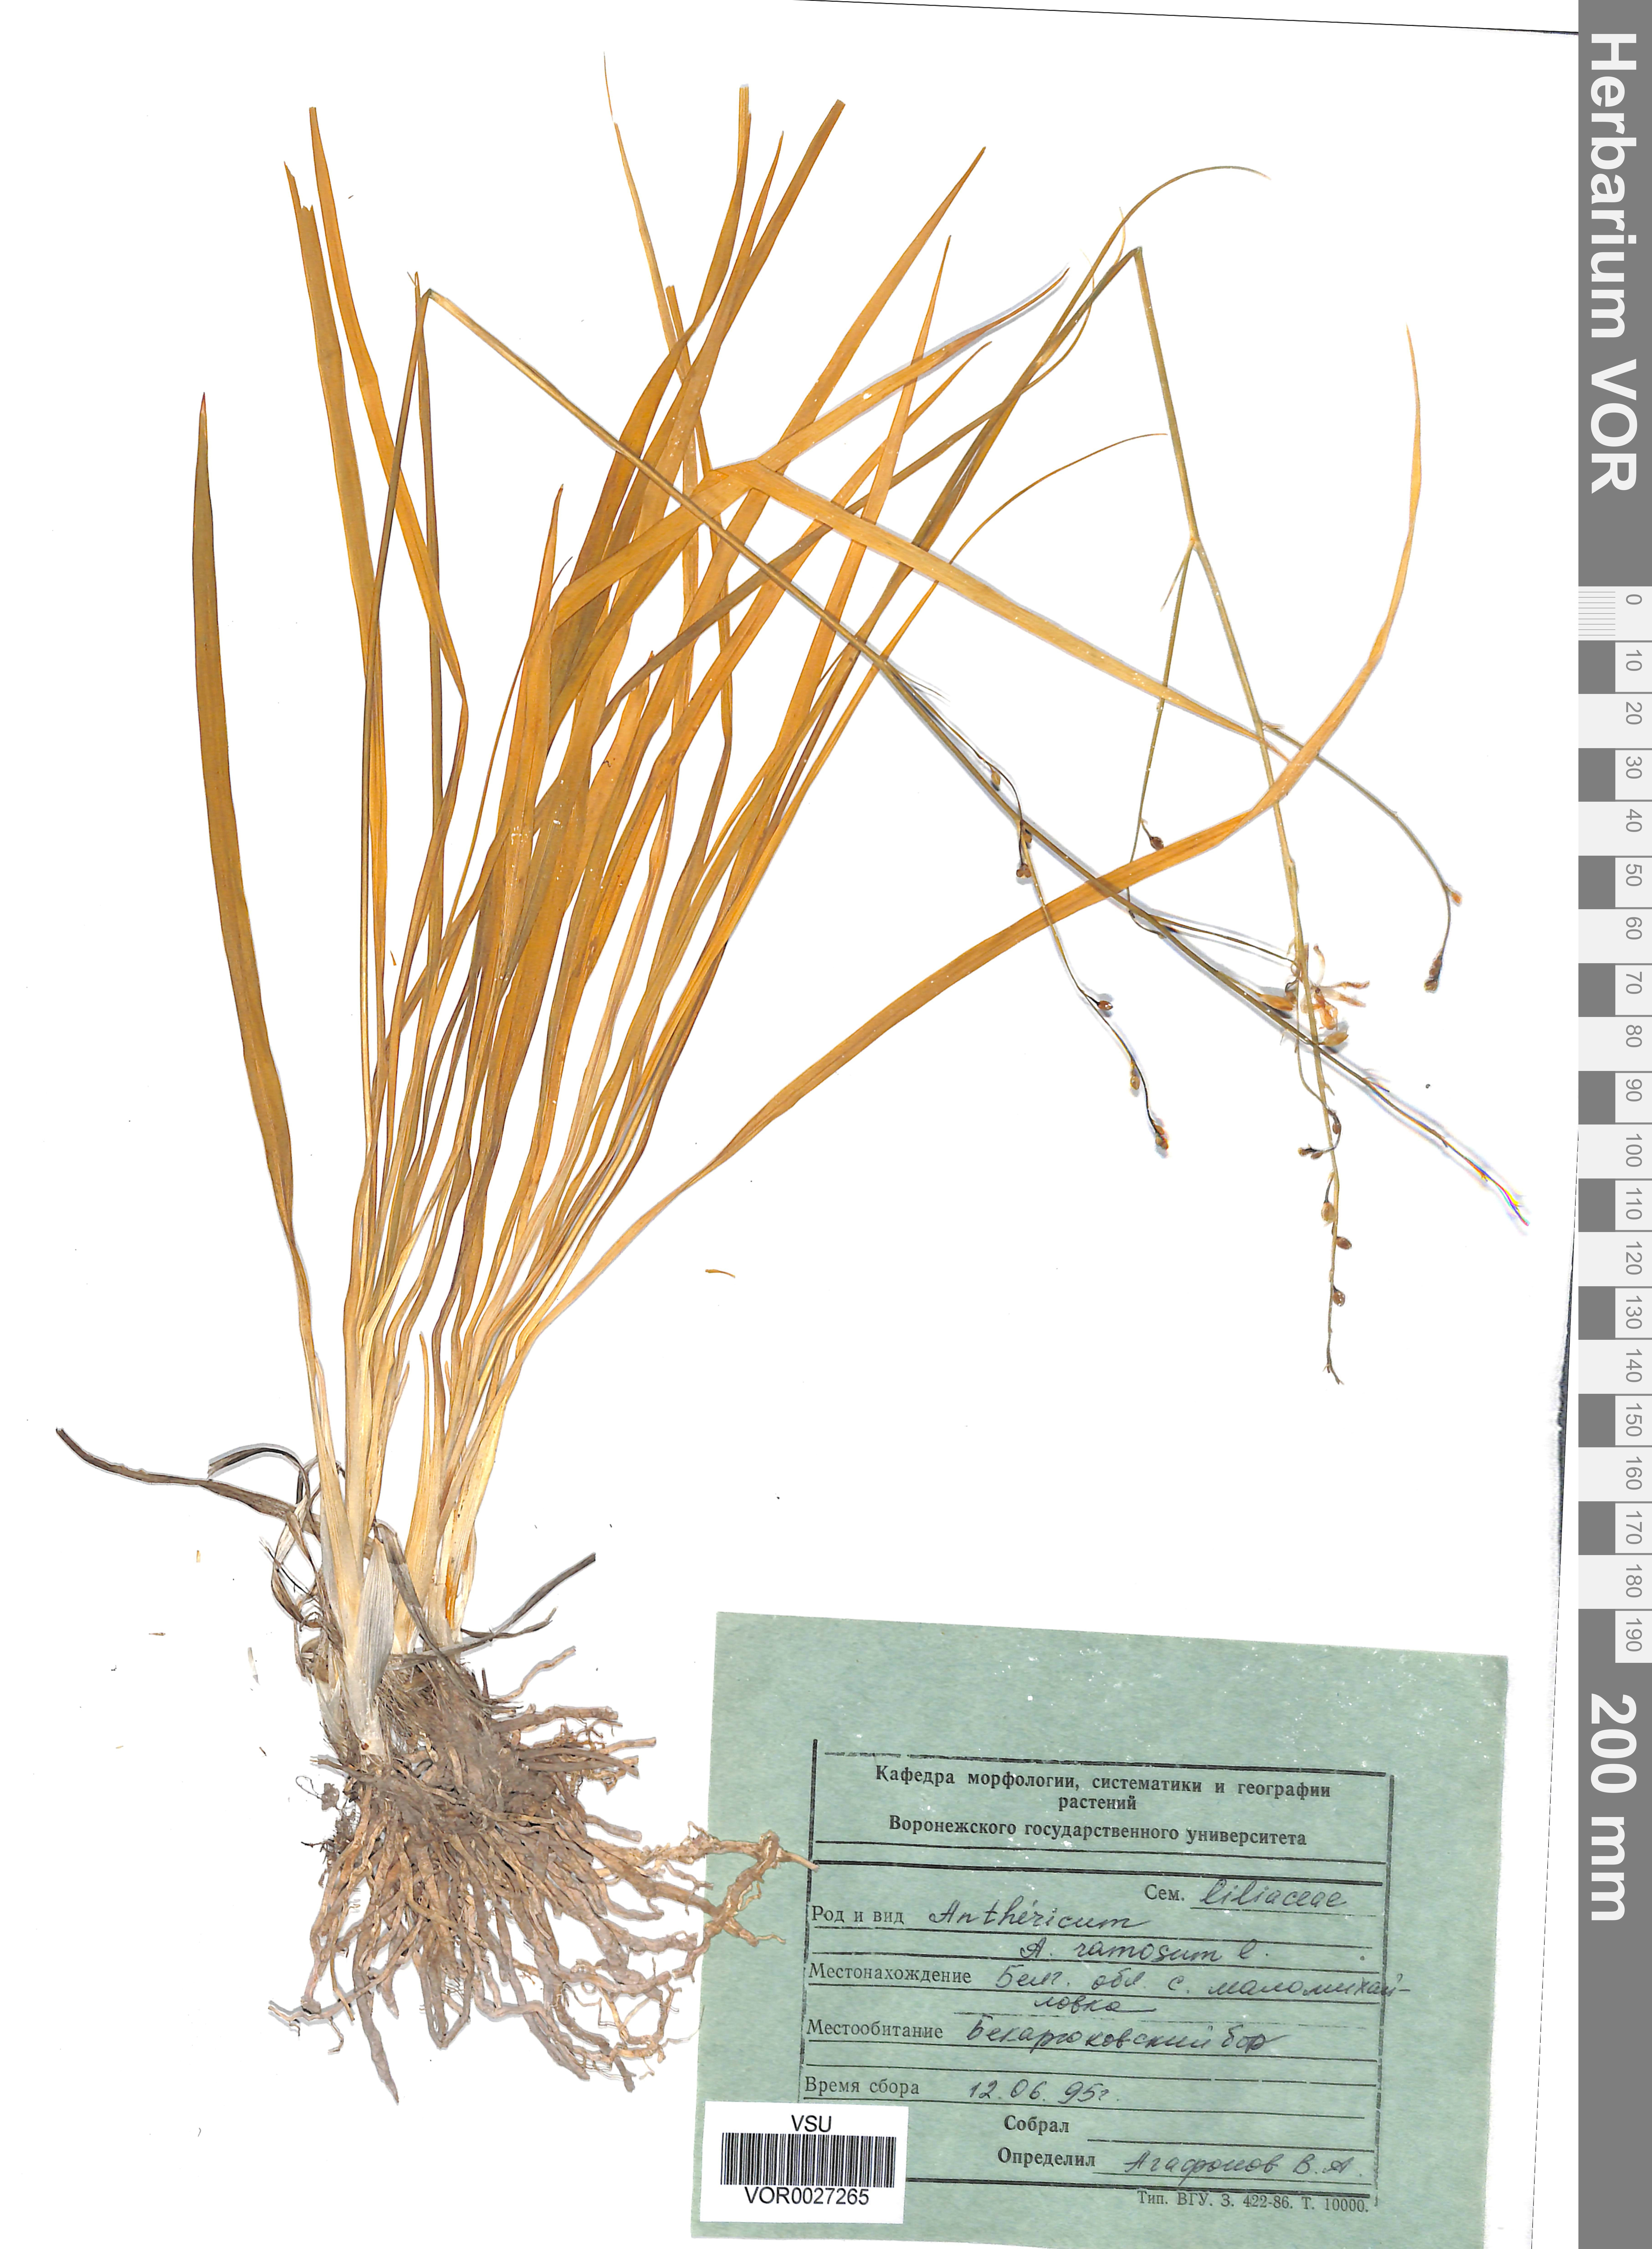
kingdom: Plantae
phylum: Tracheophyta
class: Liliopsida
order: Asparagales
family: Asparagaceae
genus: Anthericum
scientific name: Anthericum ramosum
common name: Branched st. bernard's-lily
